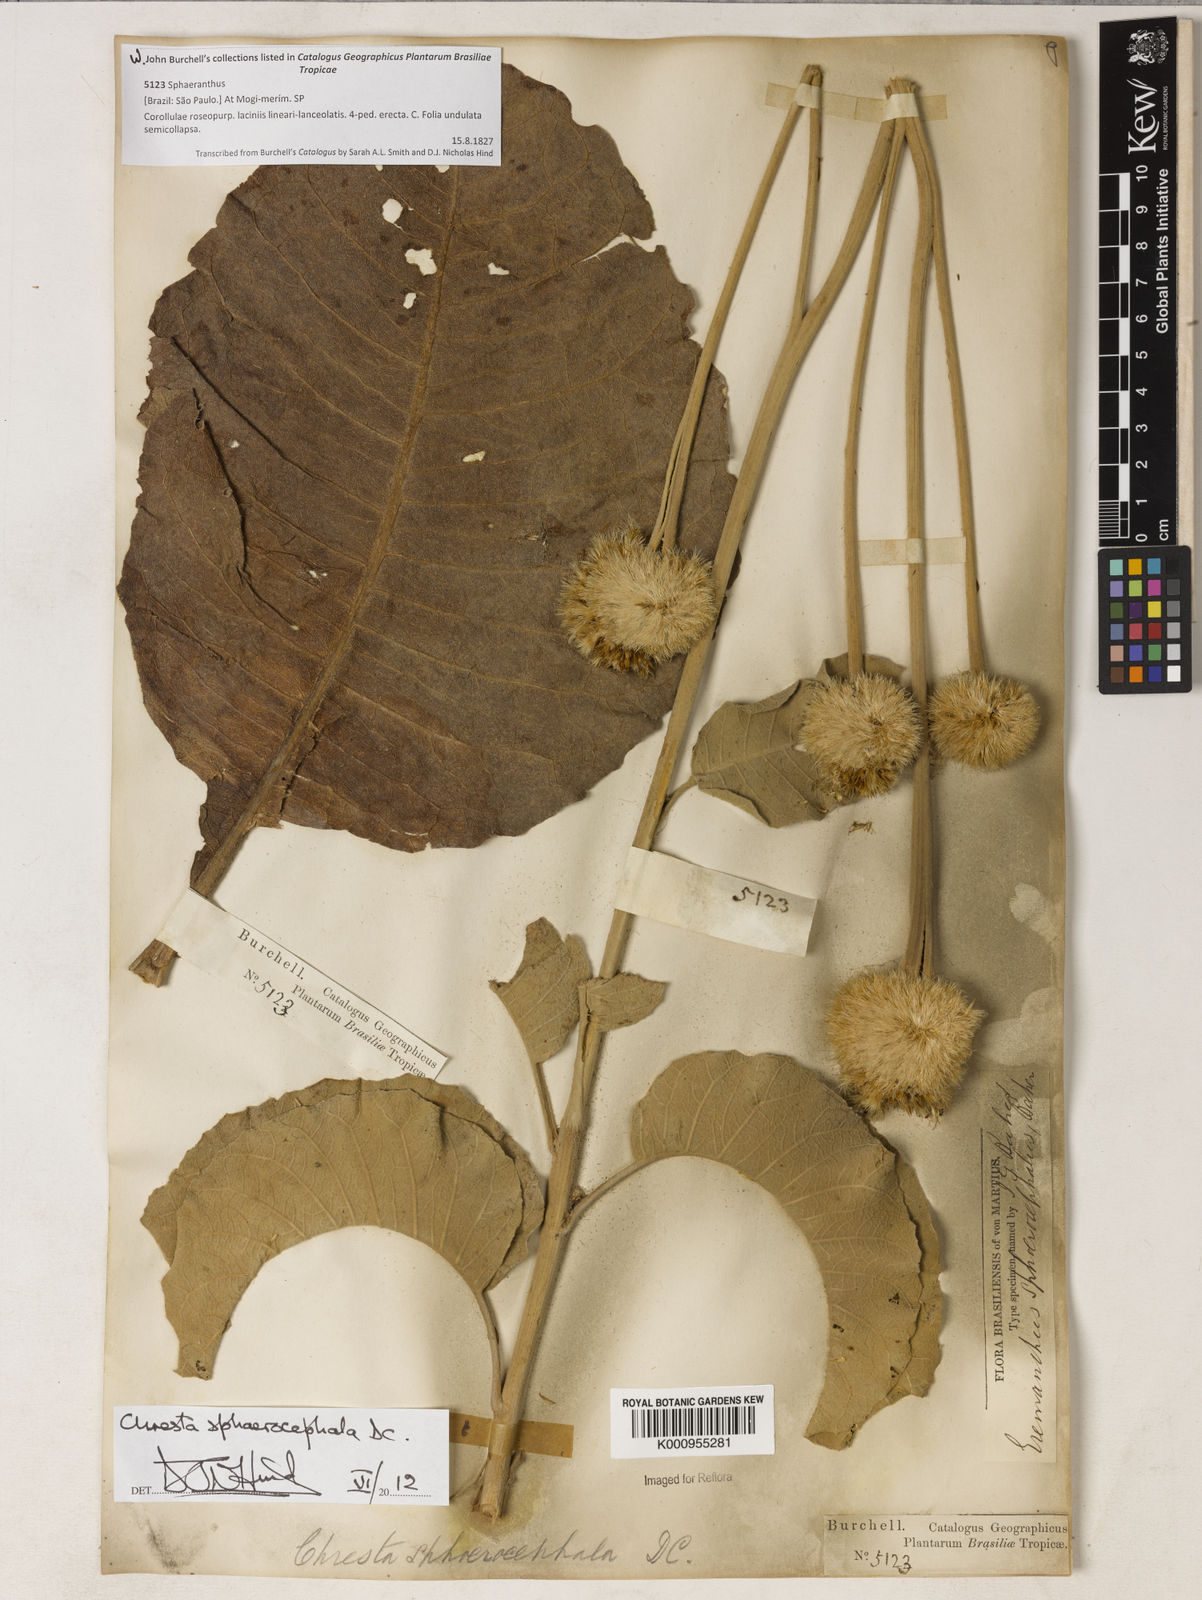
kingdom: Plantae
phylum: Tracheophyta
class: Magnoliopsida
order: Asterales
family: Asteraceae
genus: Chresta
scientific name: Chresta sphaerocephala
